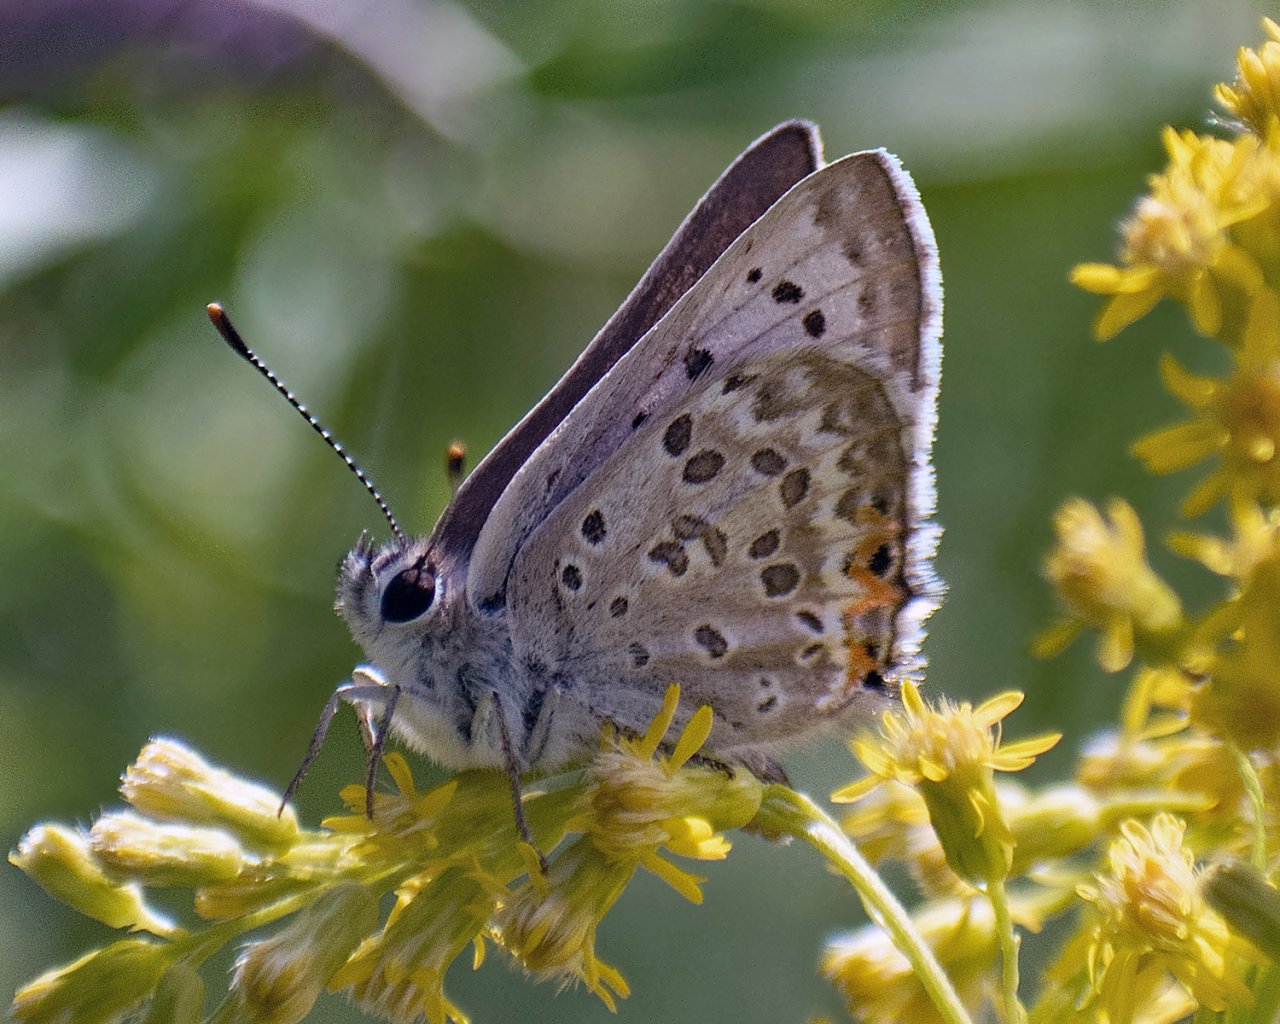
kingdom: Animalia
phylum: Arthropoda
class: Insecta
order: Lepidoptera
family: Lycaenidae
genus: Lycaena
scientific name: Lycaena editha
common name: Edith's Copper
